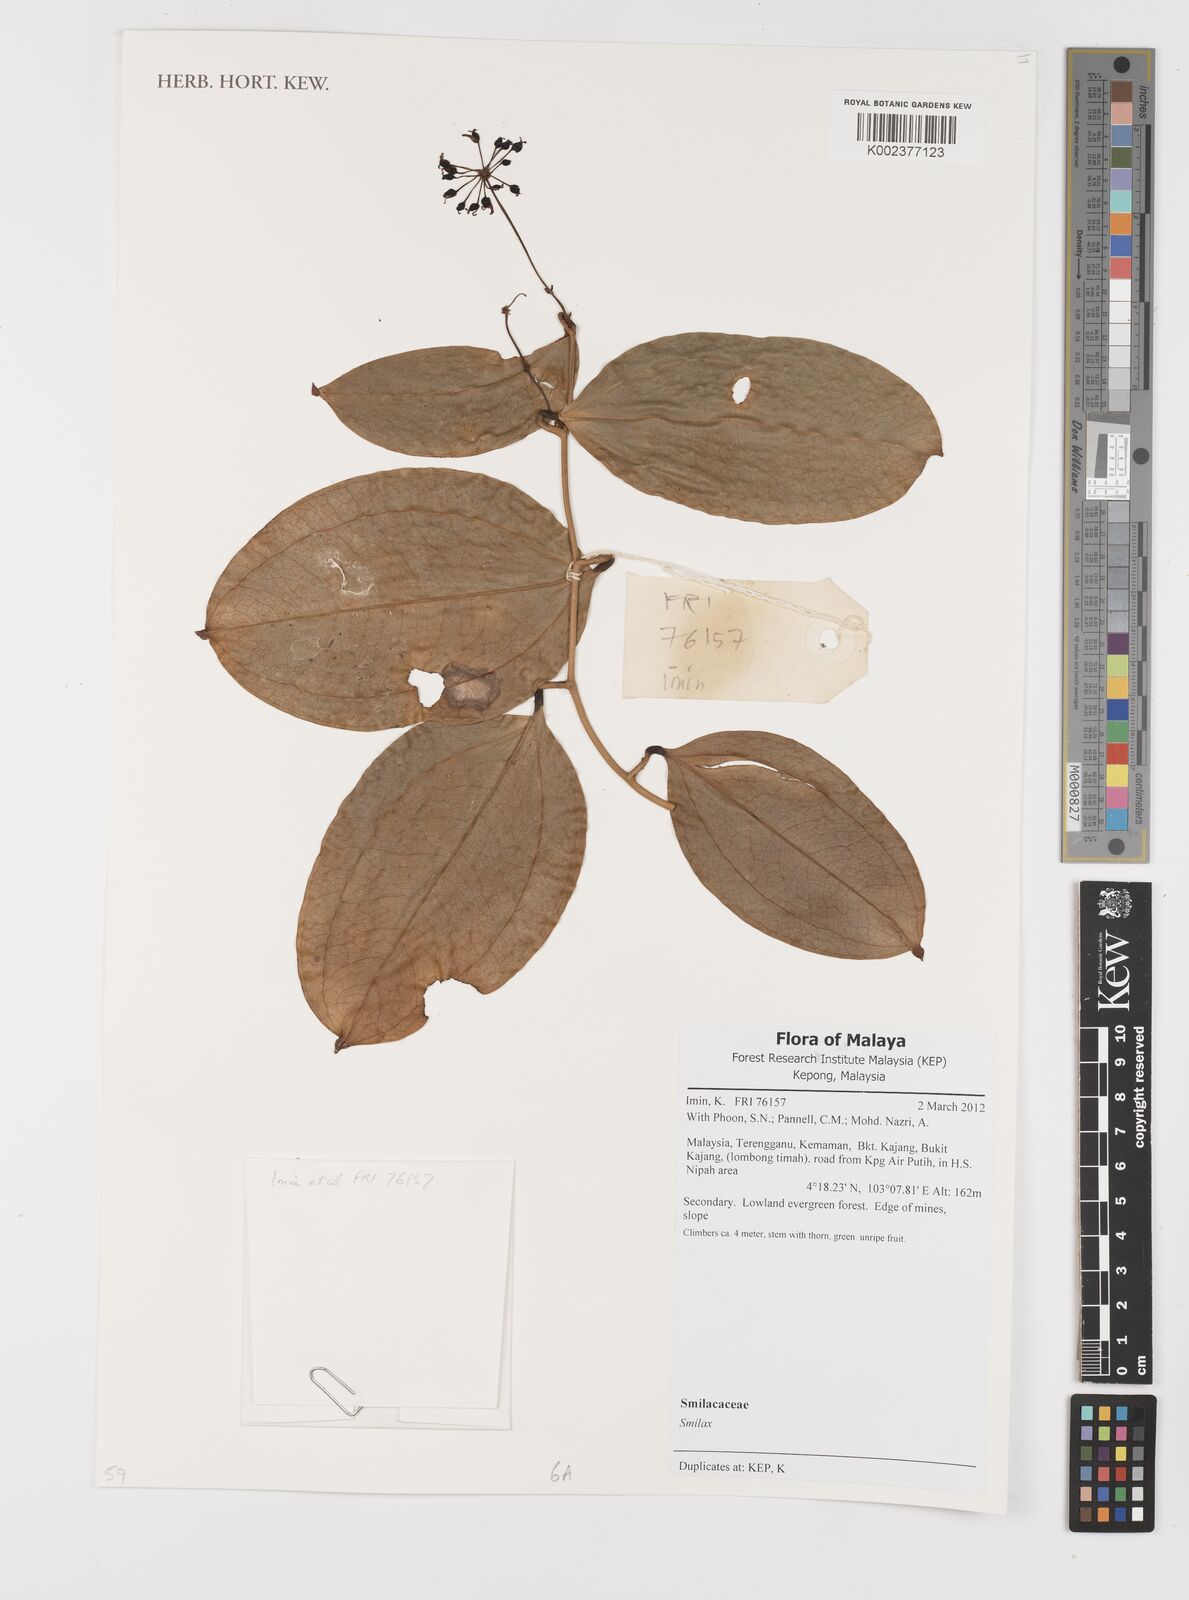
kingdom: Plantae
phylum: Tracheophyta
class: Liliopsida
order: Liliales
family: Smilacaceae
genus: Smilax
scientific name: Smilax
